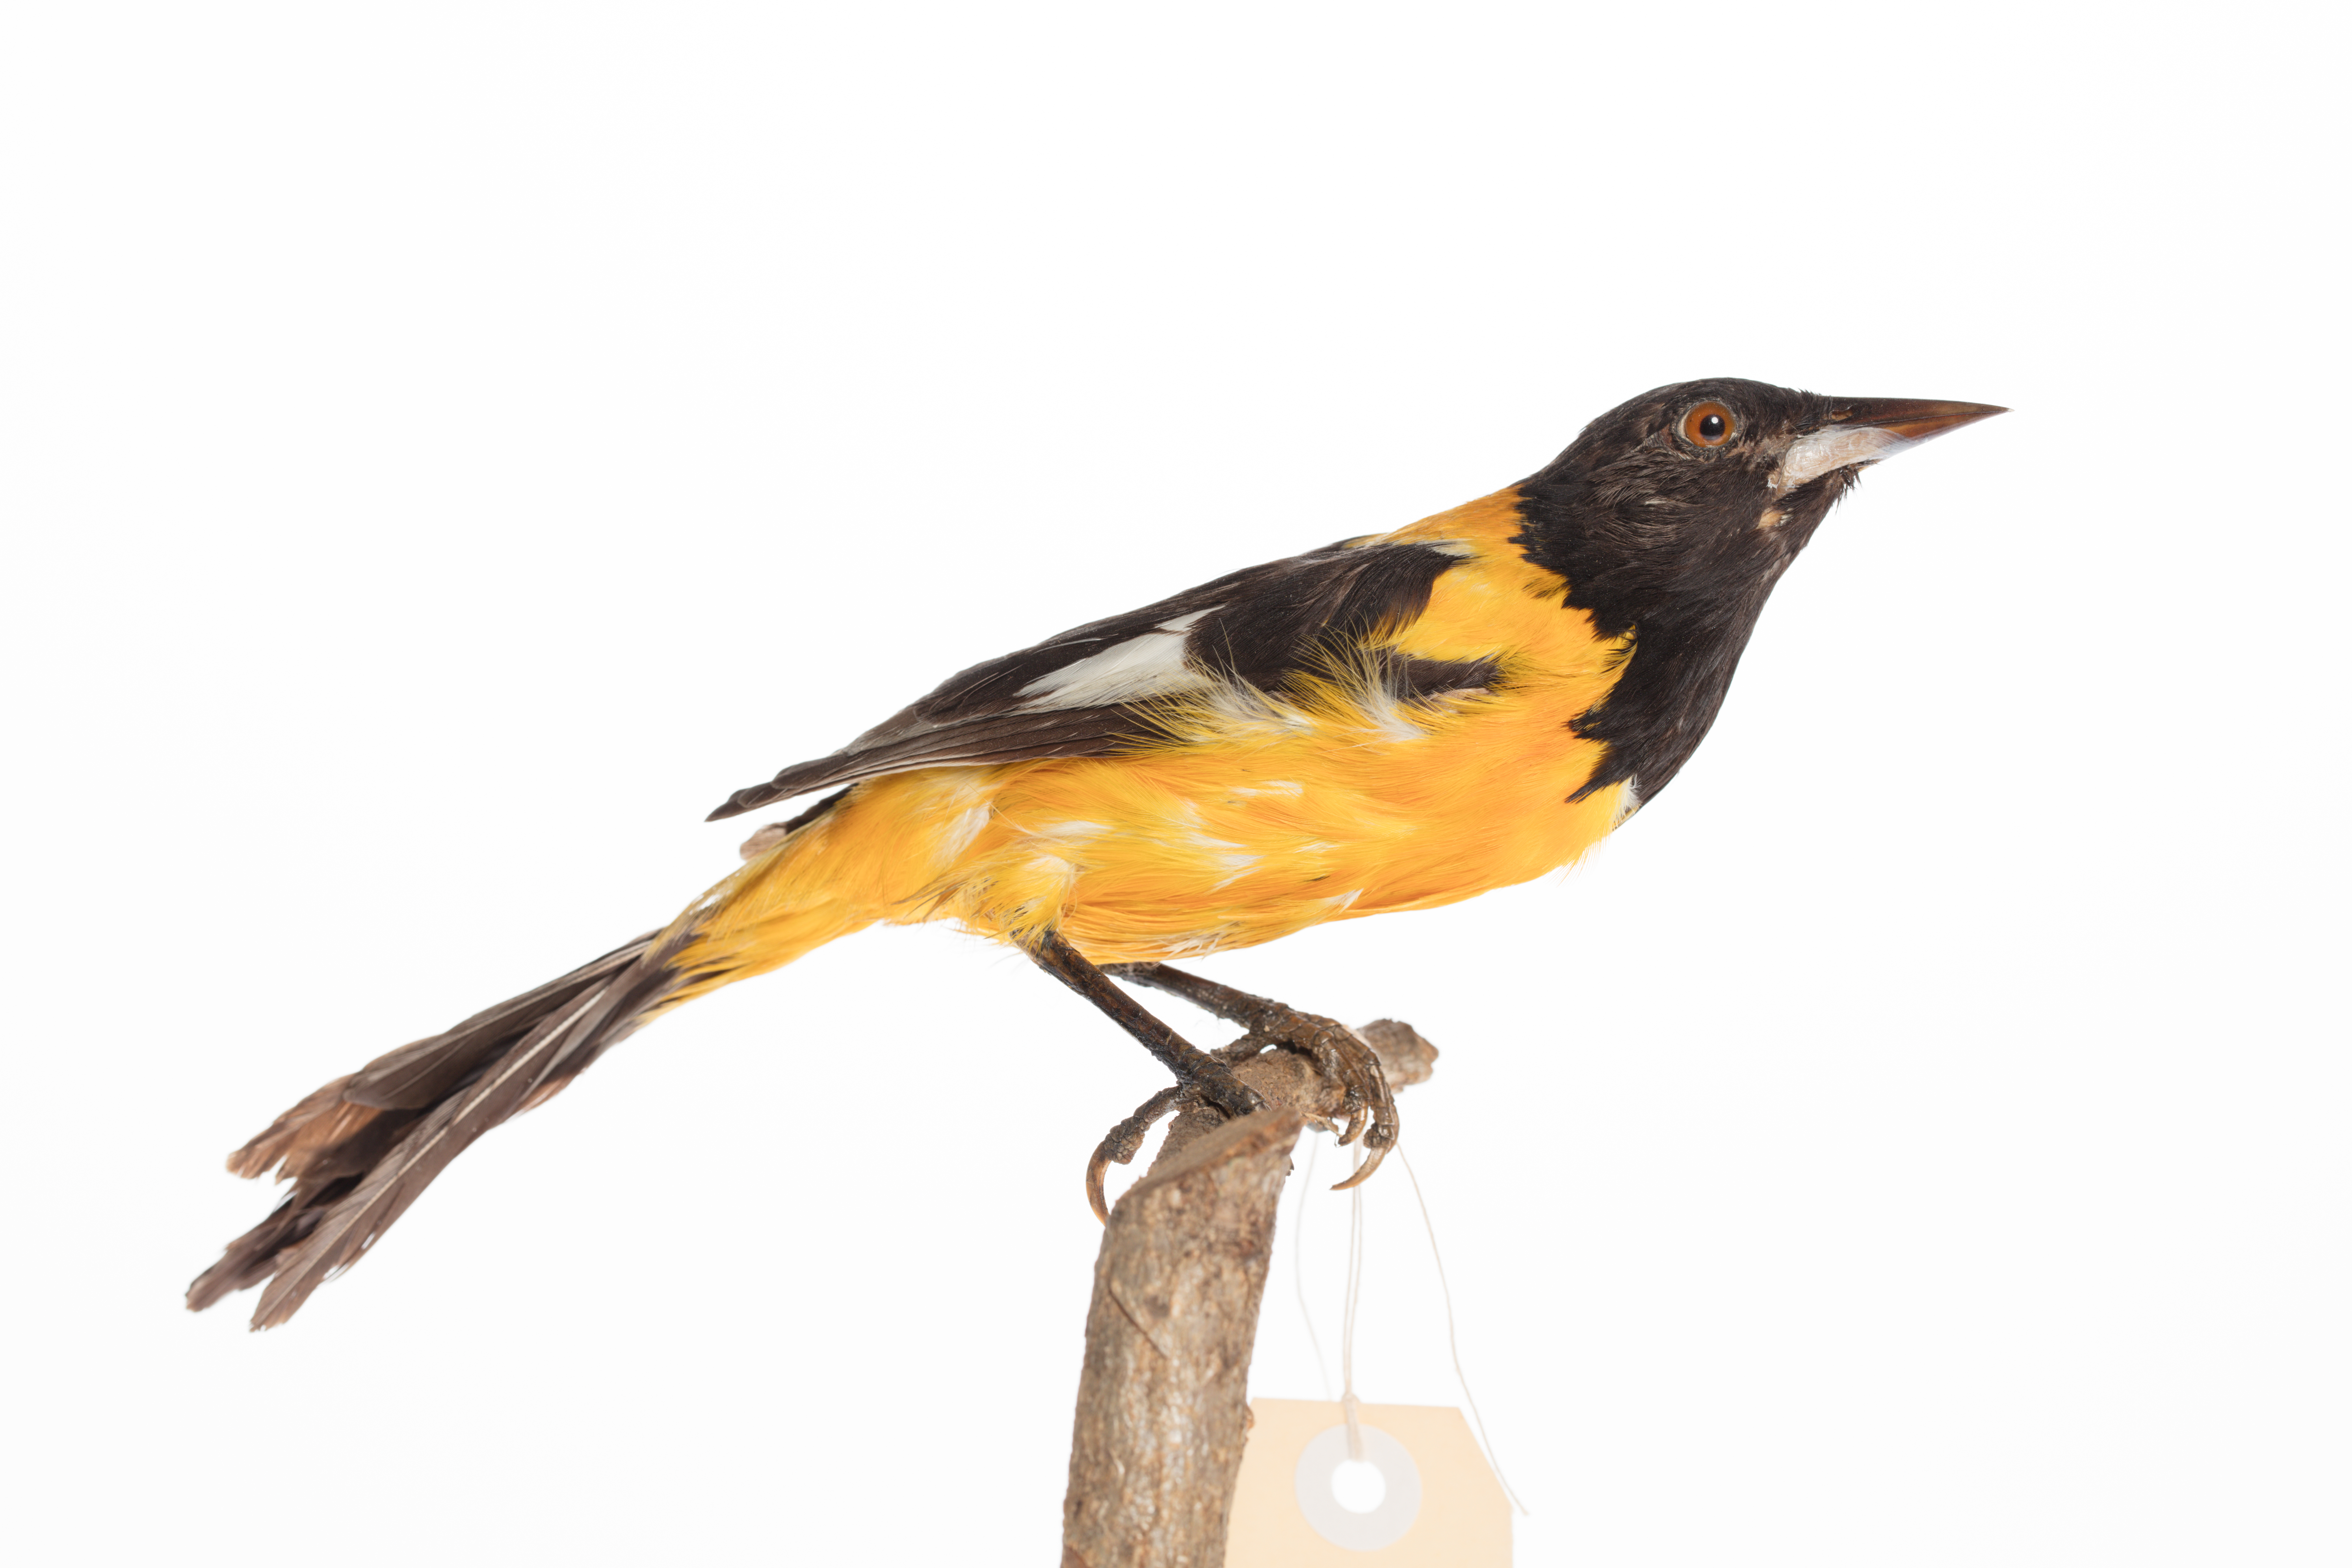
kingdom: Animalia
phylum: Chordata
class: Aves
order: Passeriformes
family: Icteridae
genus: Icterus
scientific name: Icterus icterus
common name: Venezuelan troupial
